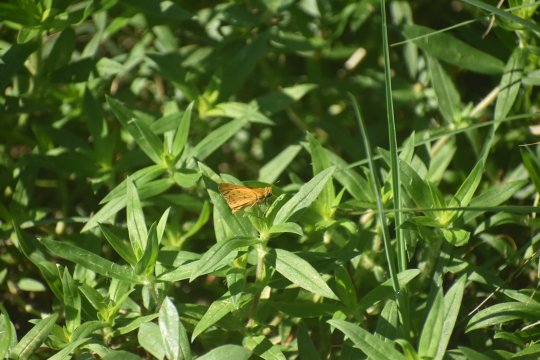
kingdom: Animalia
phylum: Arthropoda
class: Insecta
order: Lepidoptera
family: Hesperiidae
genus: Hylephila
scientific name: Hylephila phyleus
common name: Fiery Skipper
